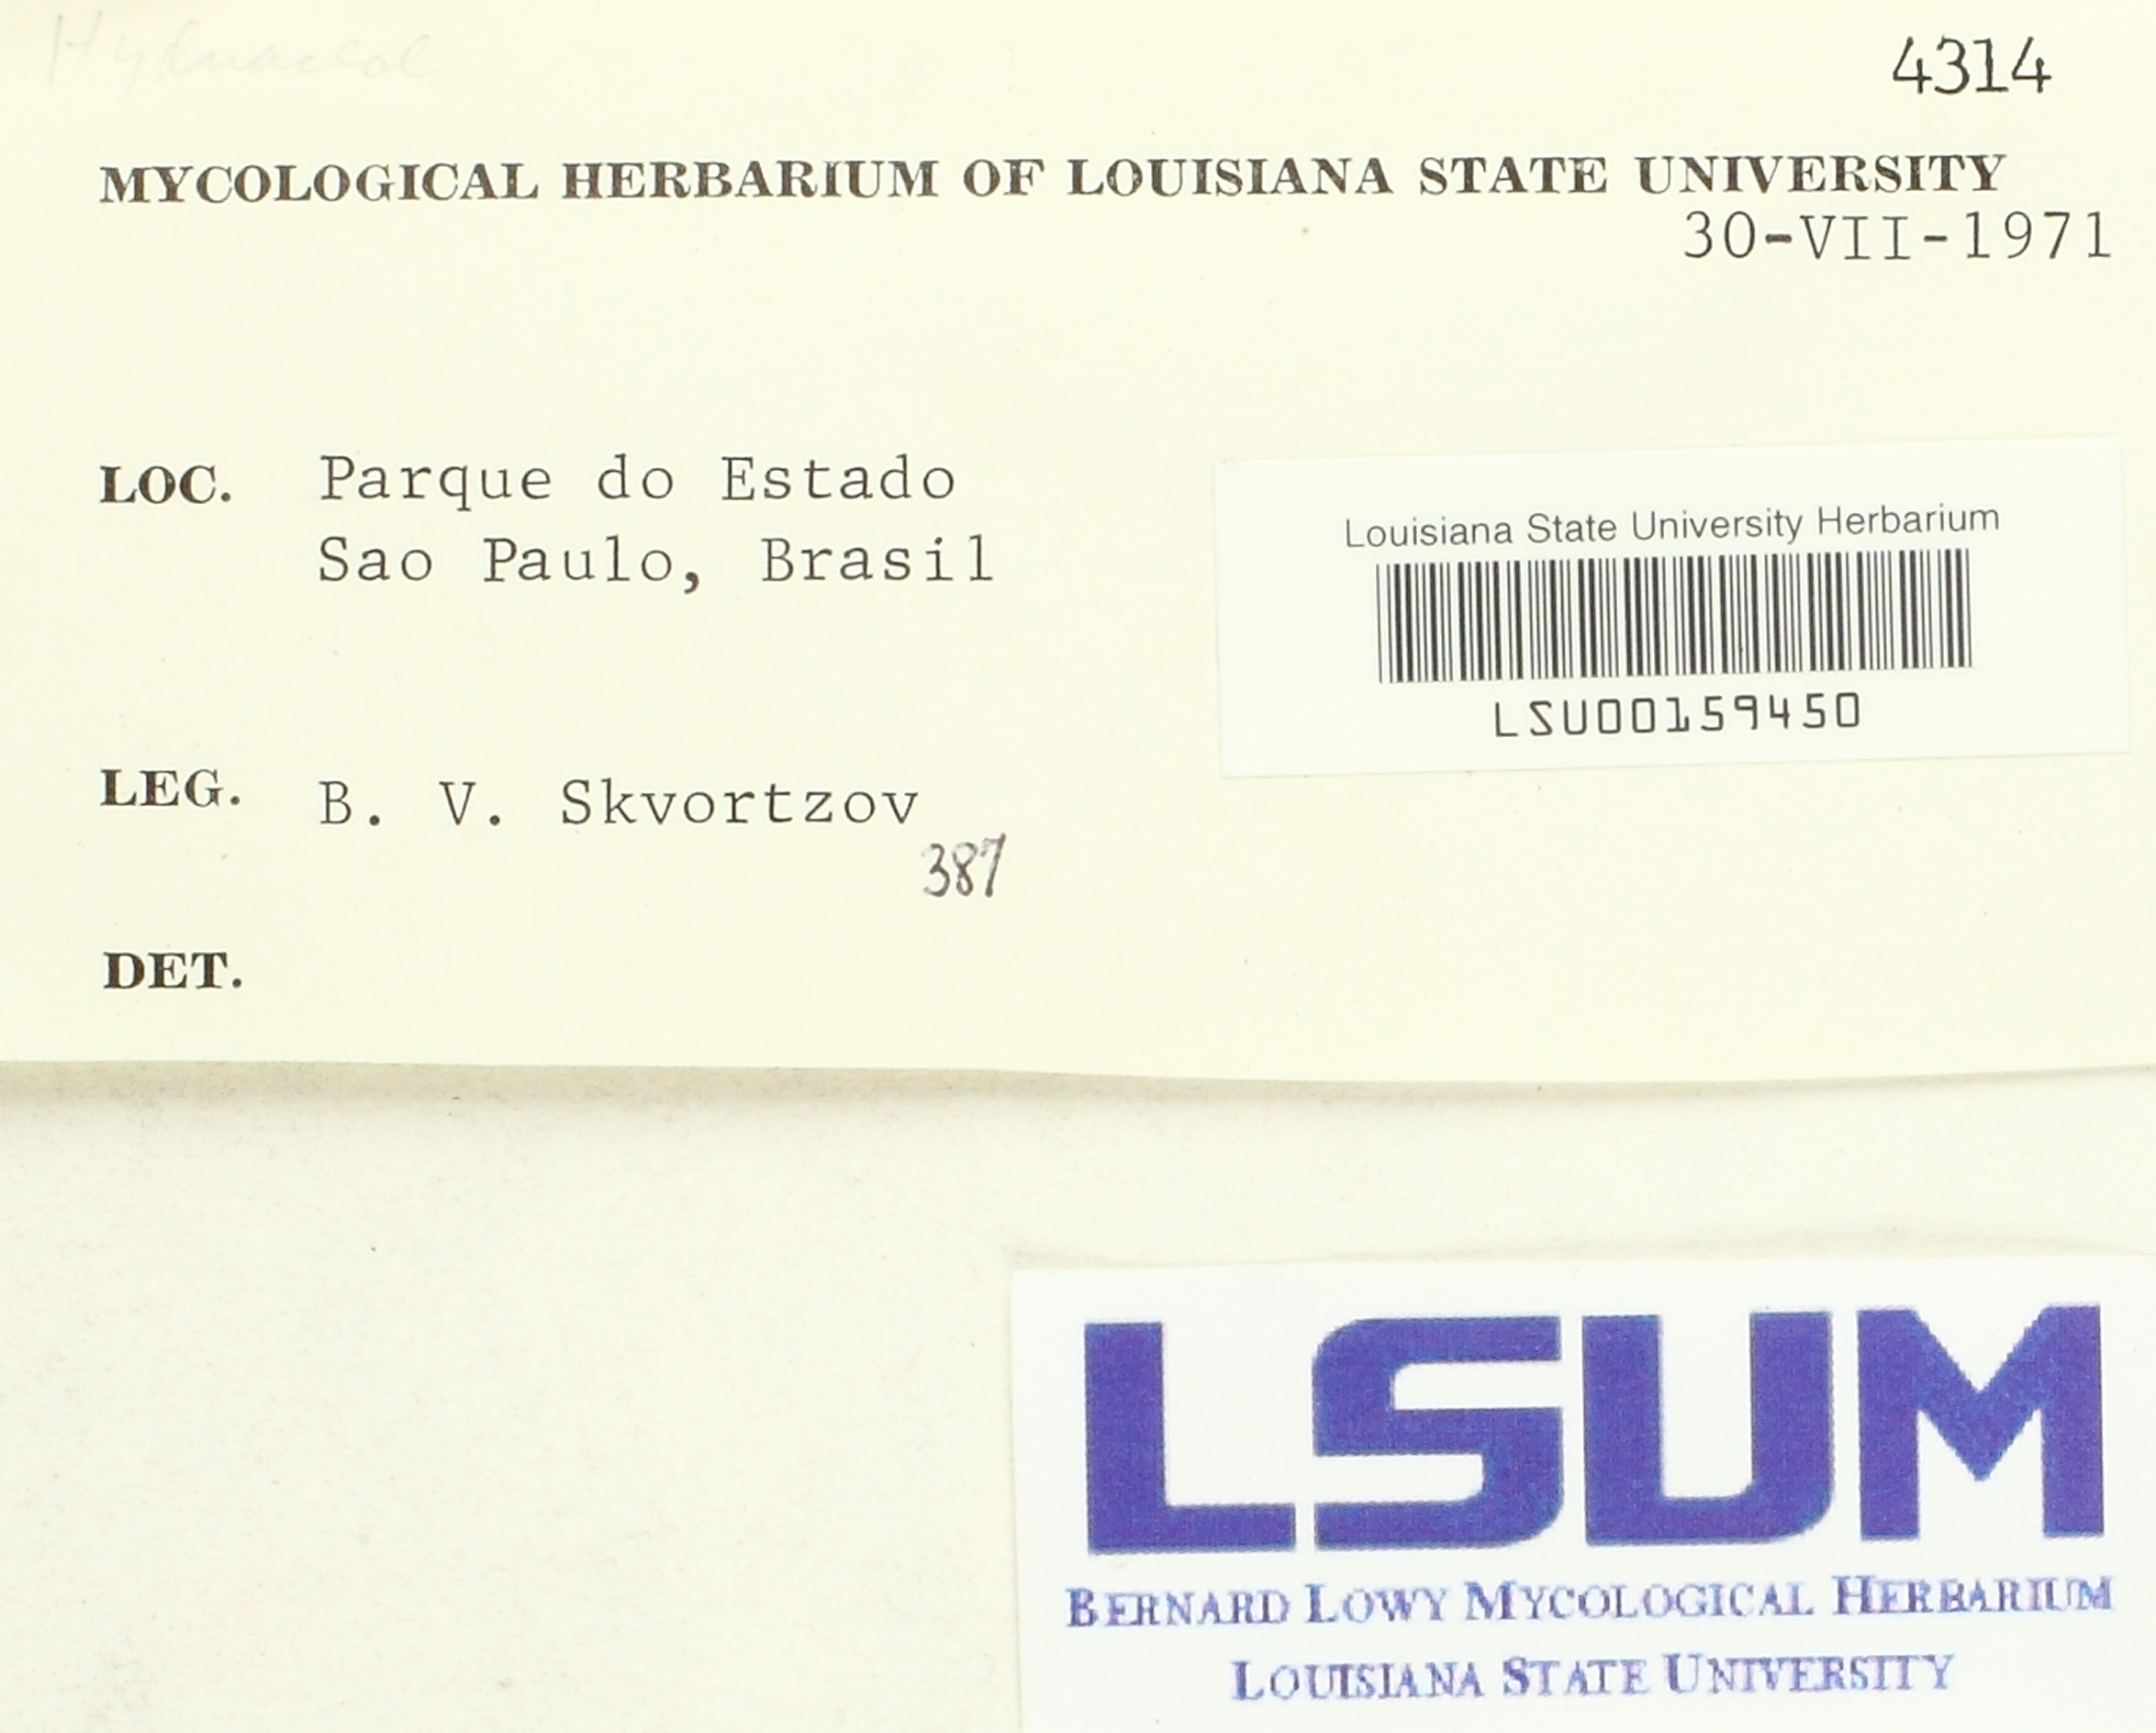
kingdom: Fungi
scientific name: Fungi
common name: Fungi
